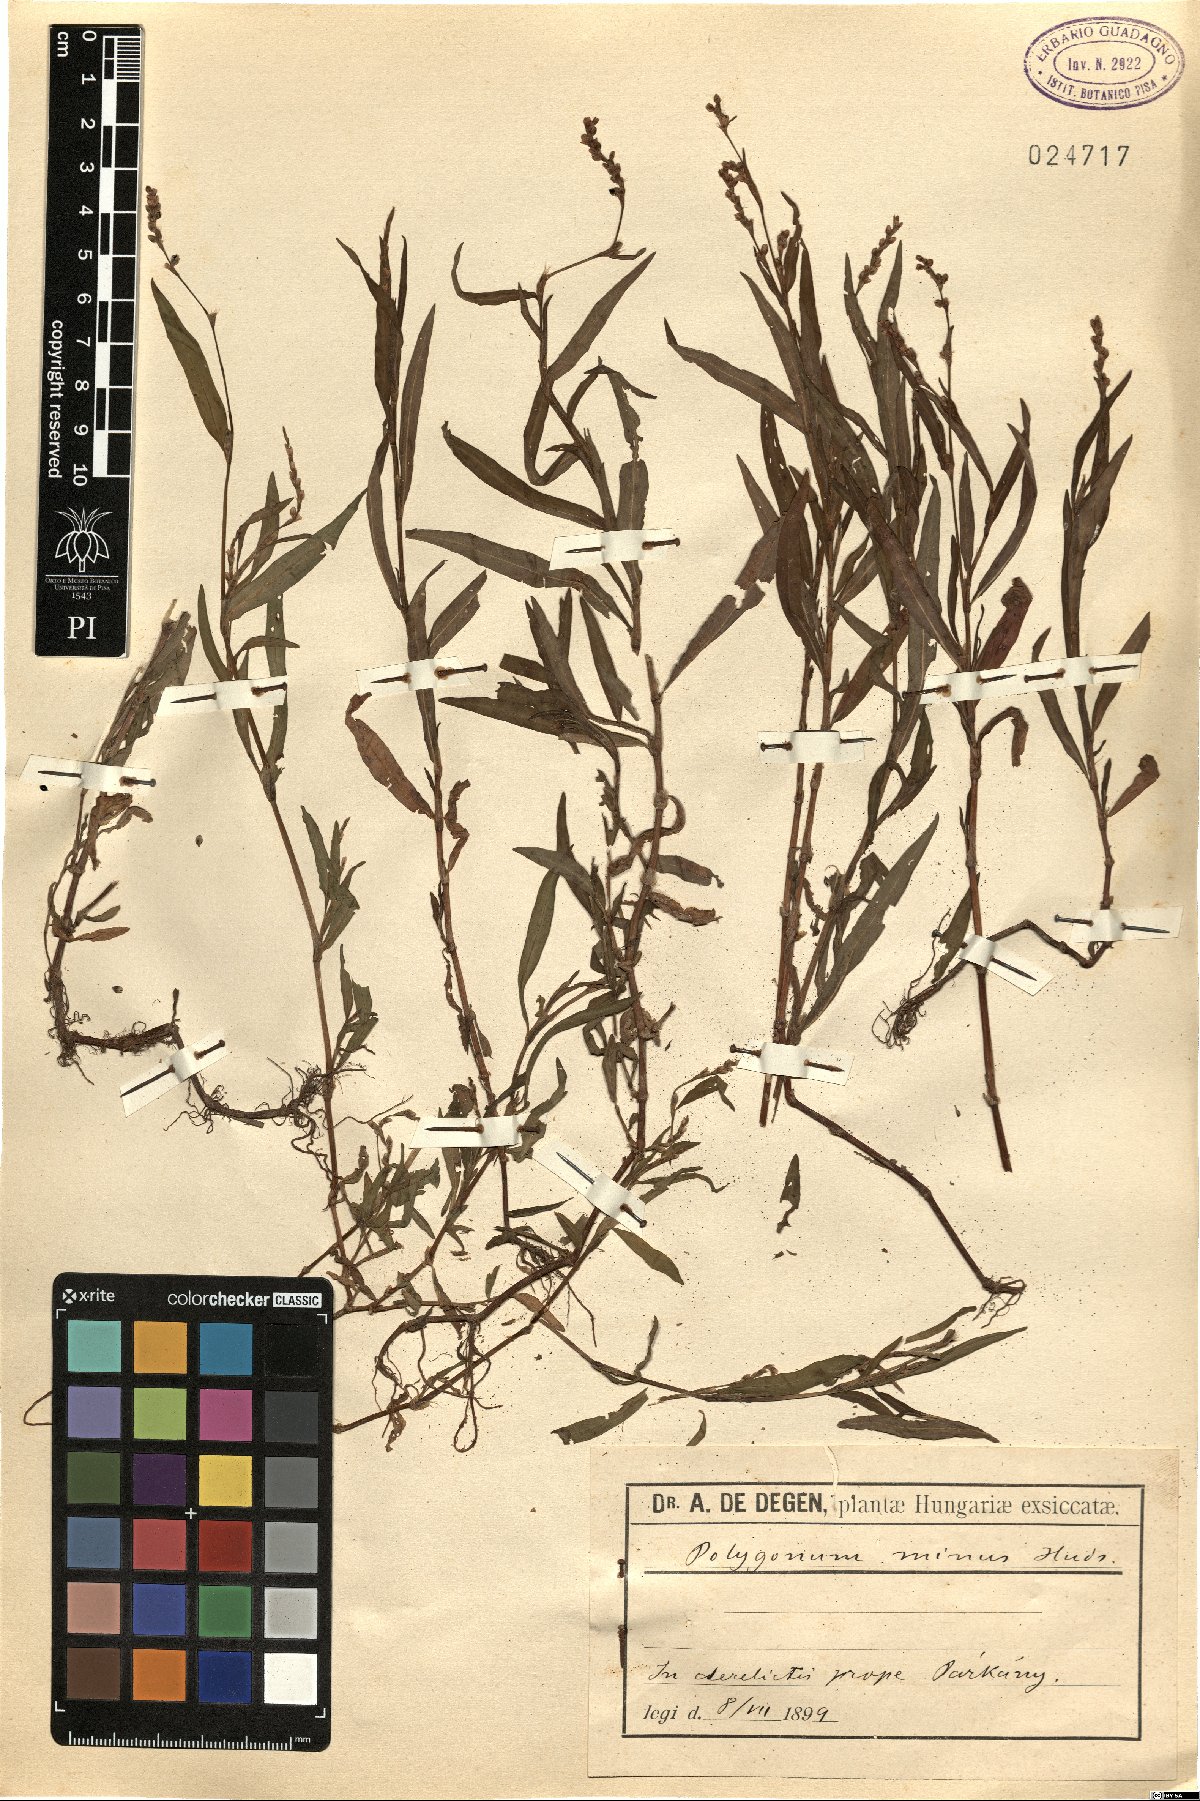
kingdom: Plantae
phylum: Tracheophyta
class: Magnoliopsida
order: Caryophyllales
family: Polygonaceae
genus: Persicaria
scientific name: Persicaria hydropiper
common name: Water-pepper
